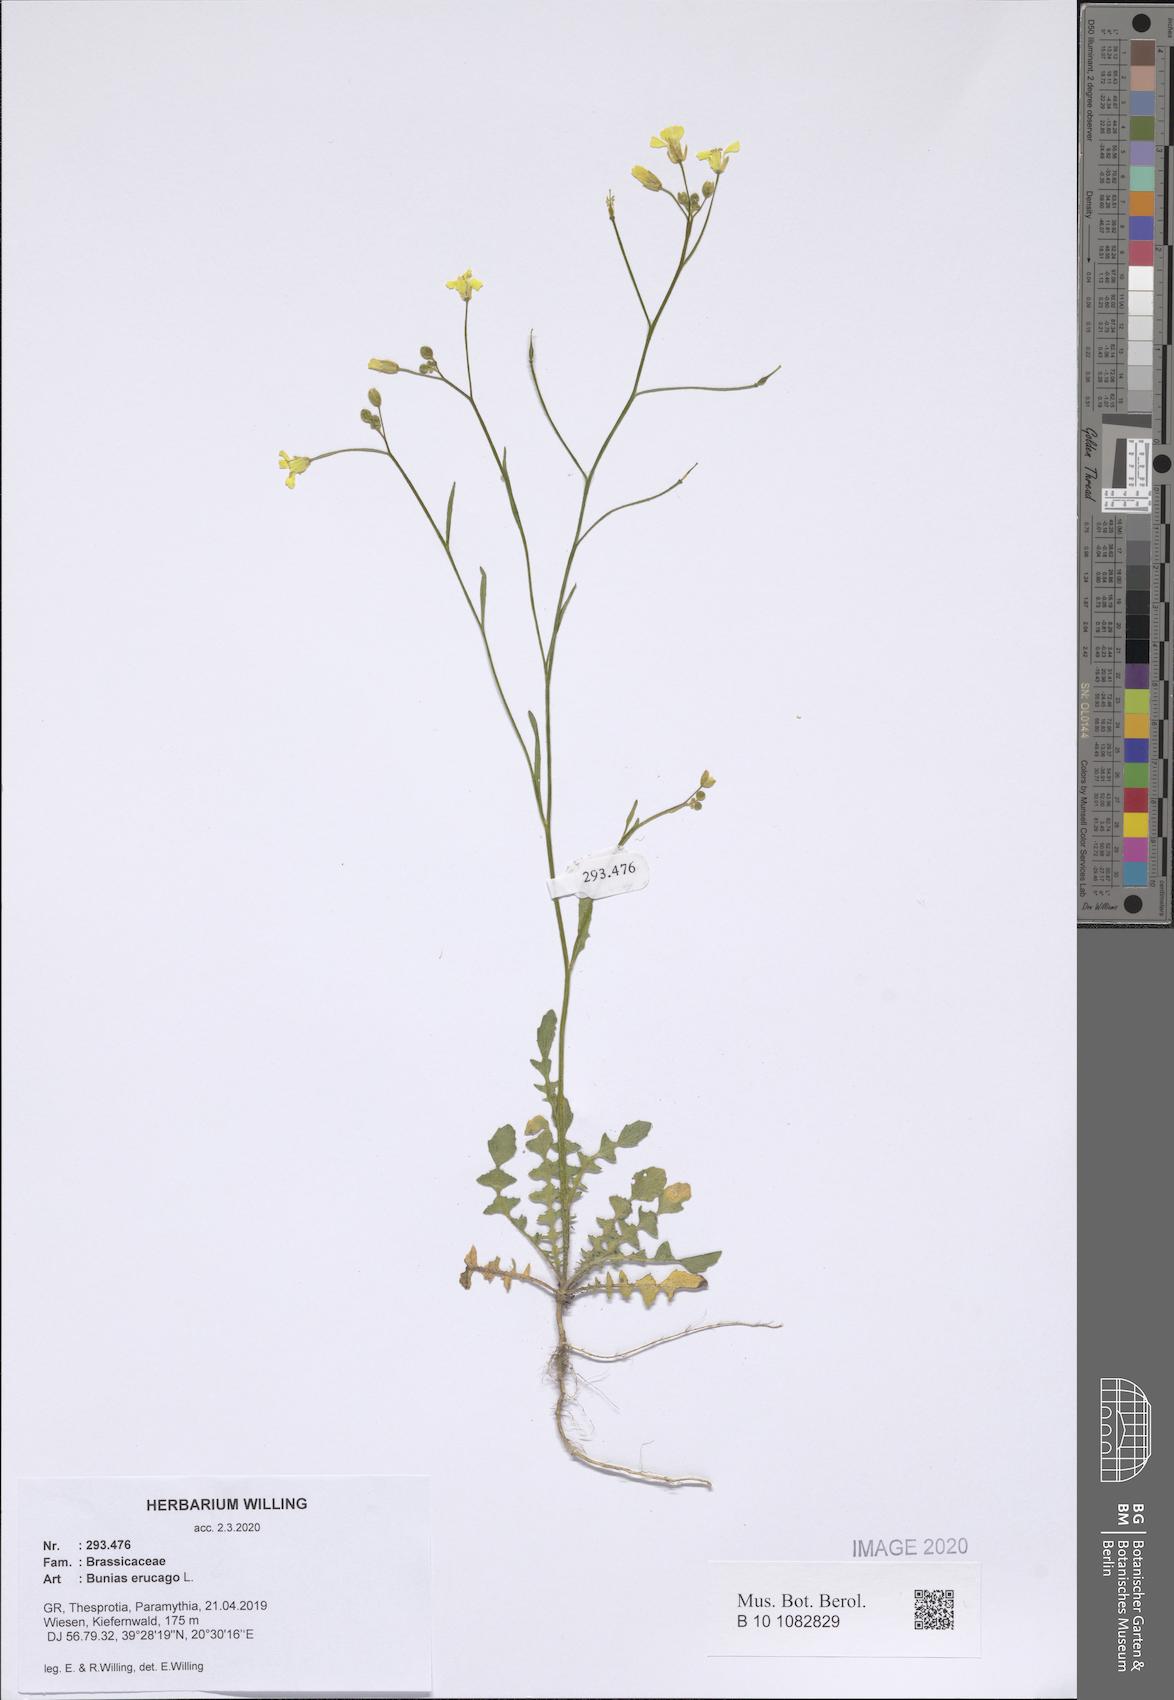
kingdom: Plantae
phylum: Tracheophyta
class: Magnoliopsida
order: Brassicales
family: Brassicaceae
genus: Bunias
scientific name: Bunias erucago
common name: Southern warty-cabbage
